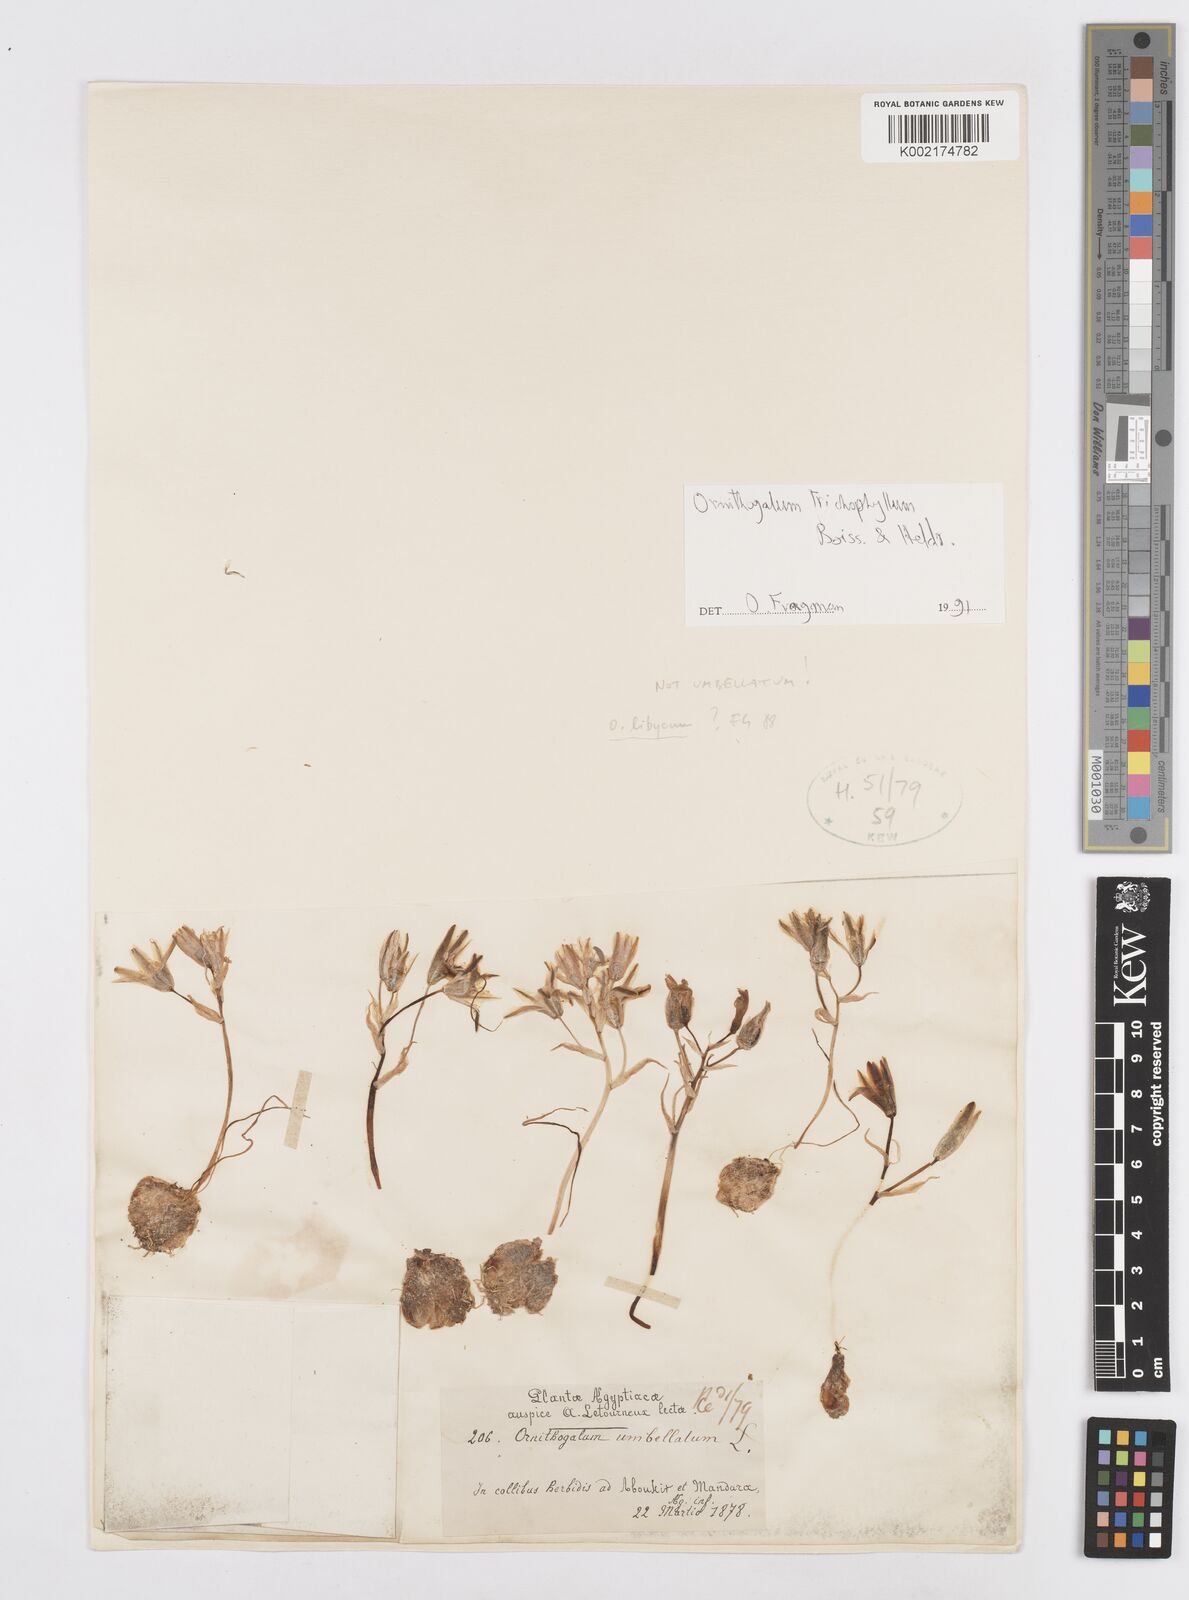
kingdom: Plantae
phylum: Tracheophyta
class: Liliopsida
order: Asparagales
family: Asparagaceae
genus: Ornithogalum
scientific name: Ornithogalum trichophyllum
